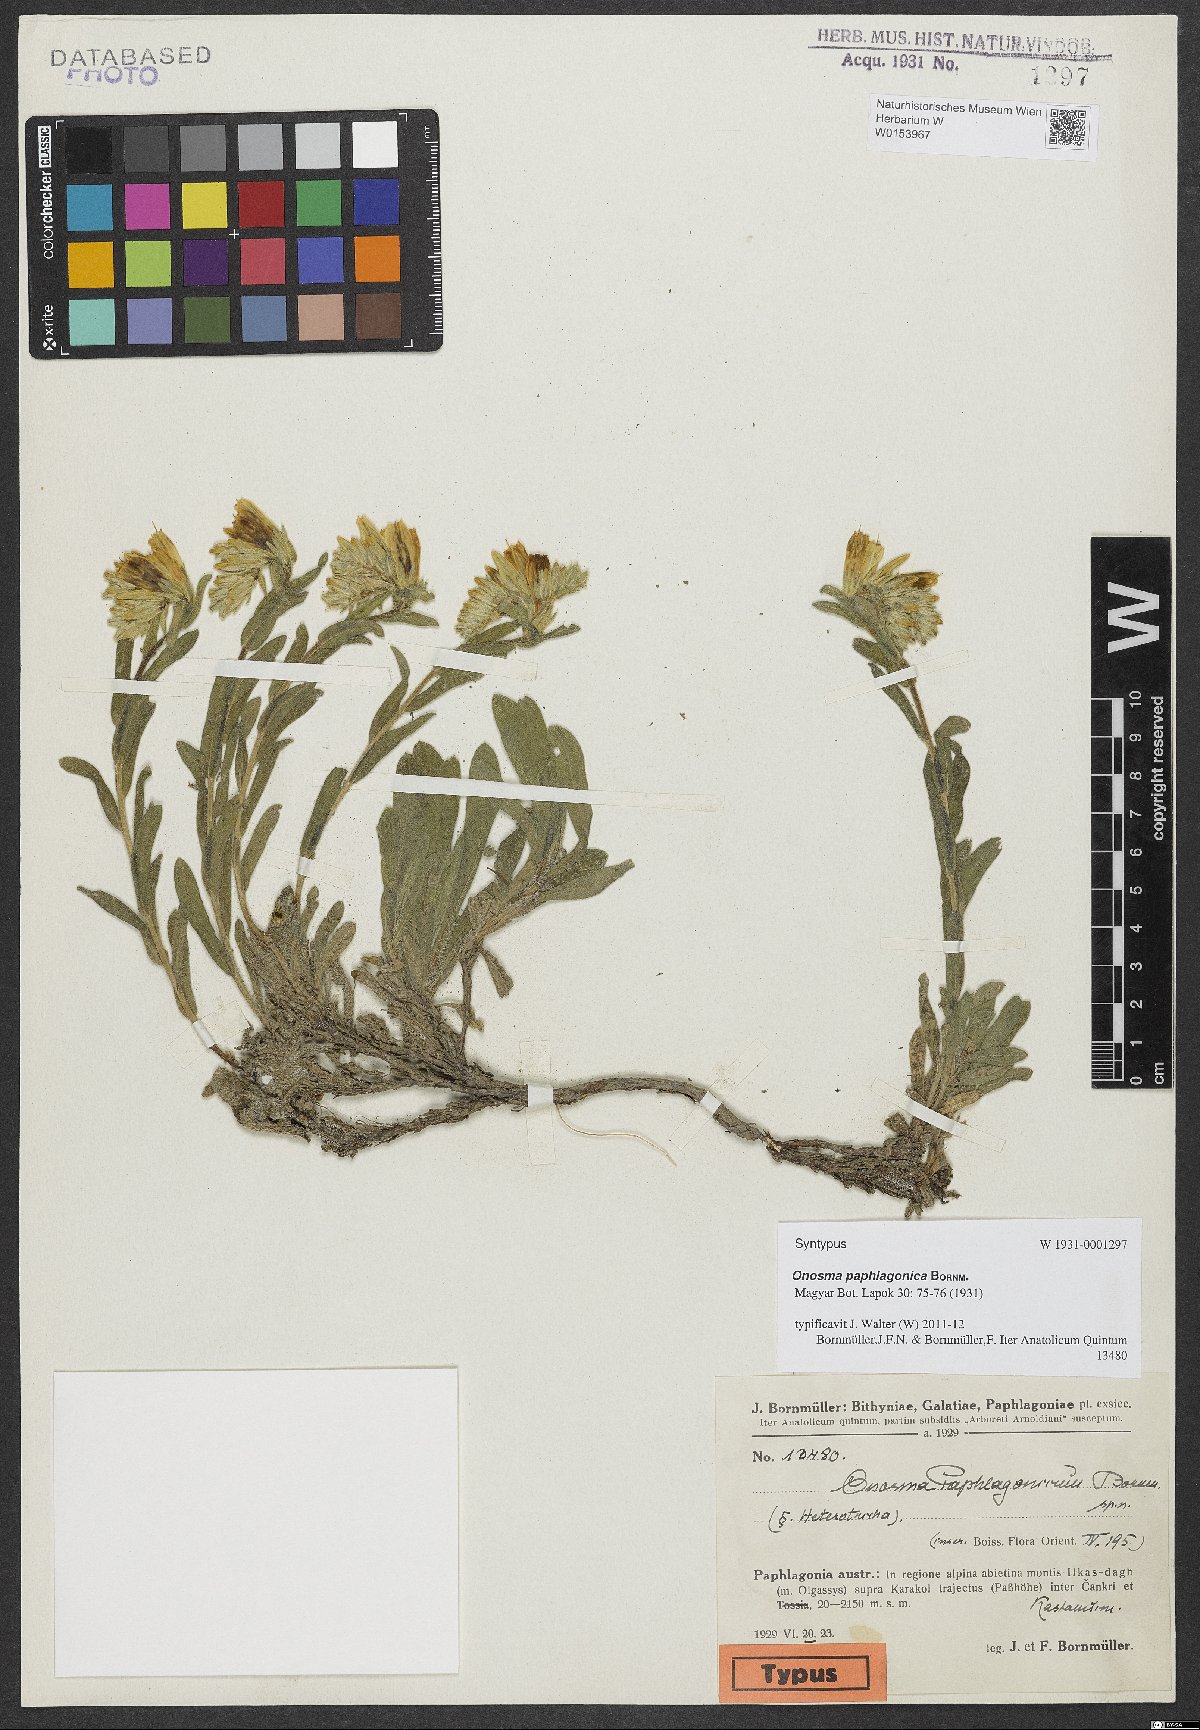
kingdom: Plantae
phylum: Tracheophyta
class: Magnoliopsida
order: Boraginales
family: Boraginaceae
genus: Onosma
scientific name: Onosma paphlagonica
